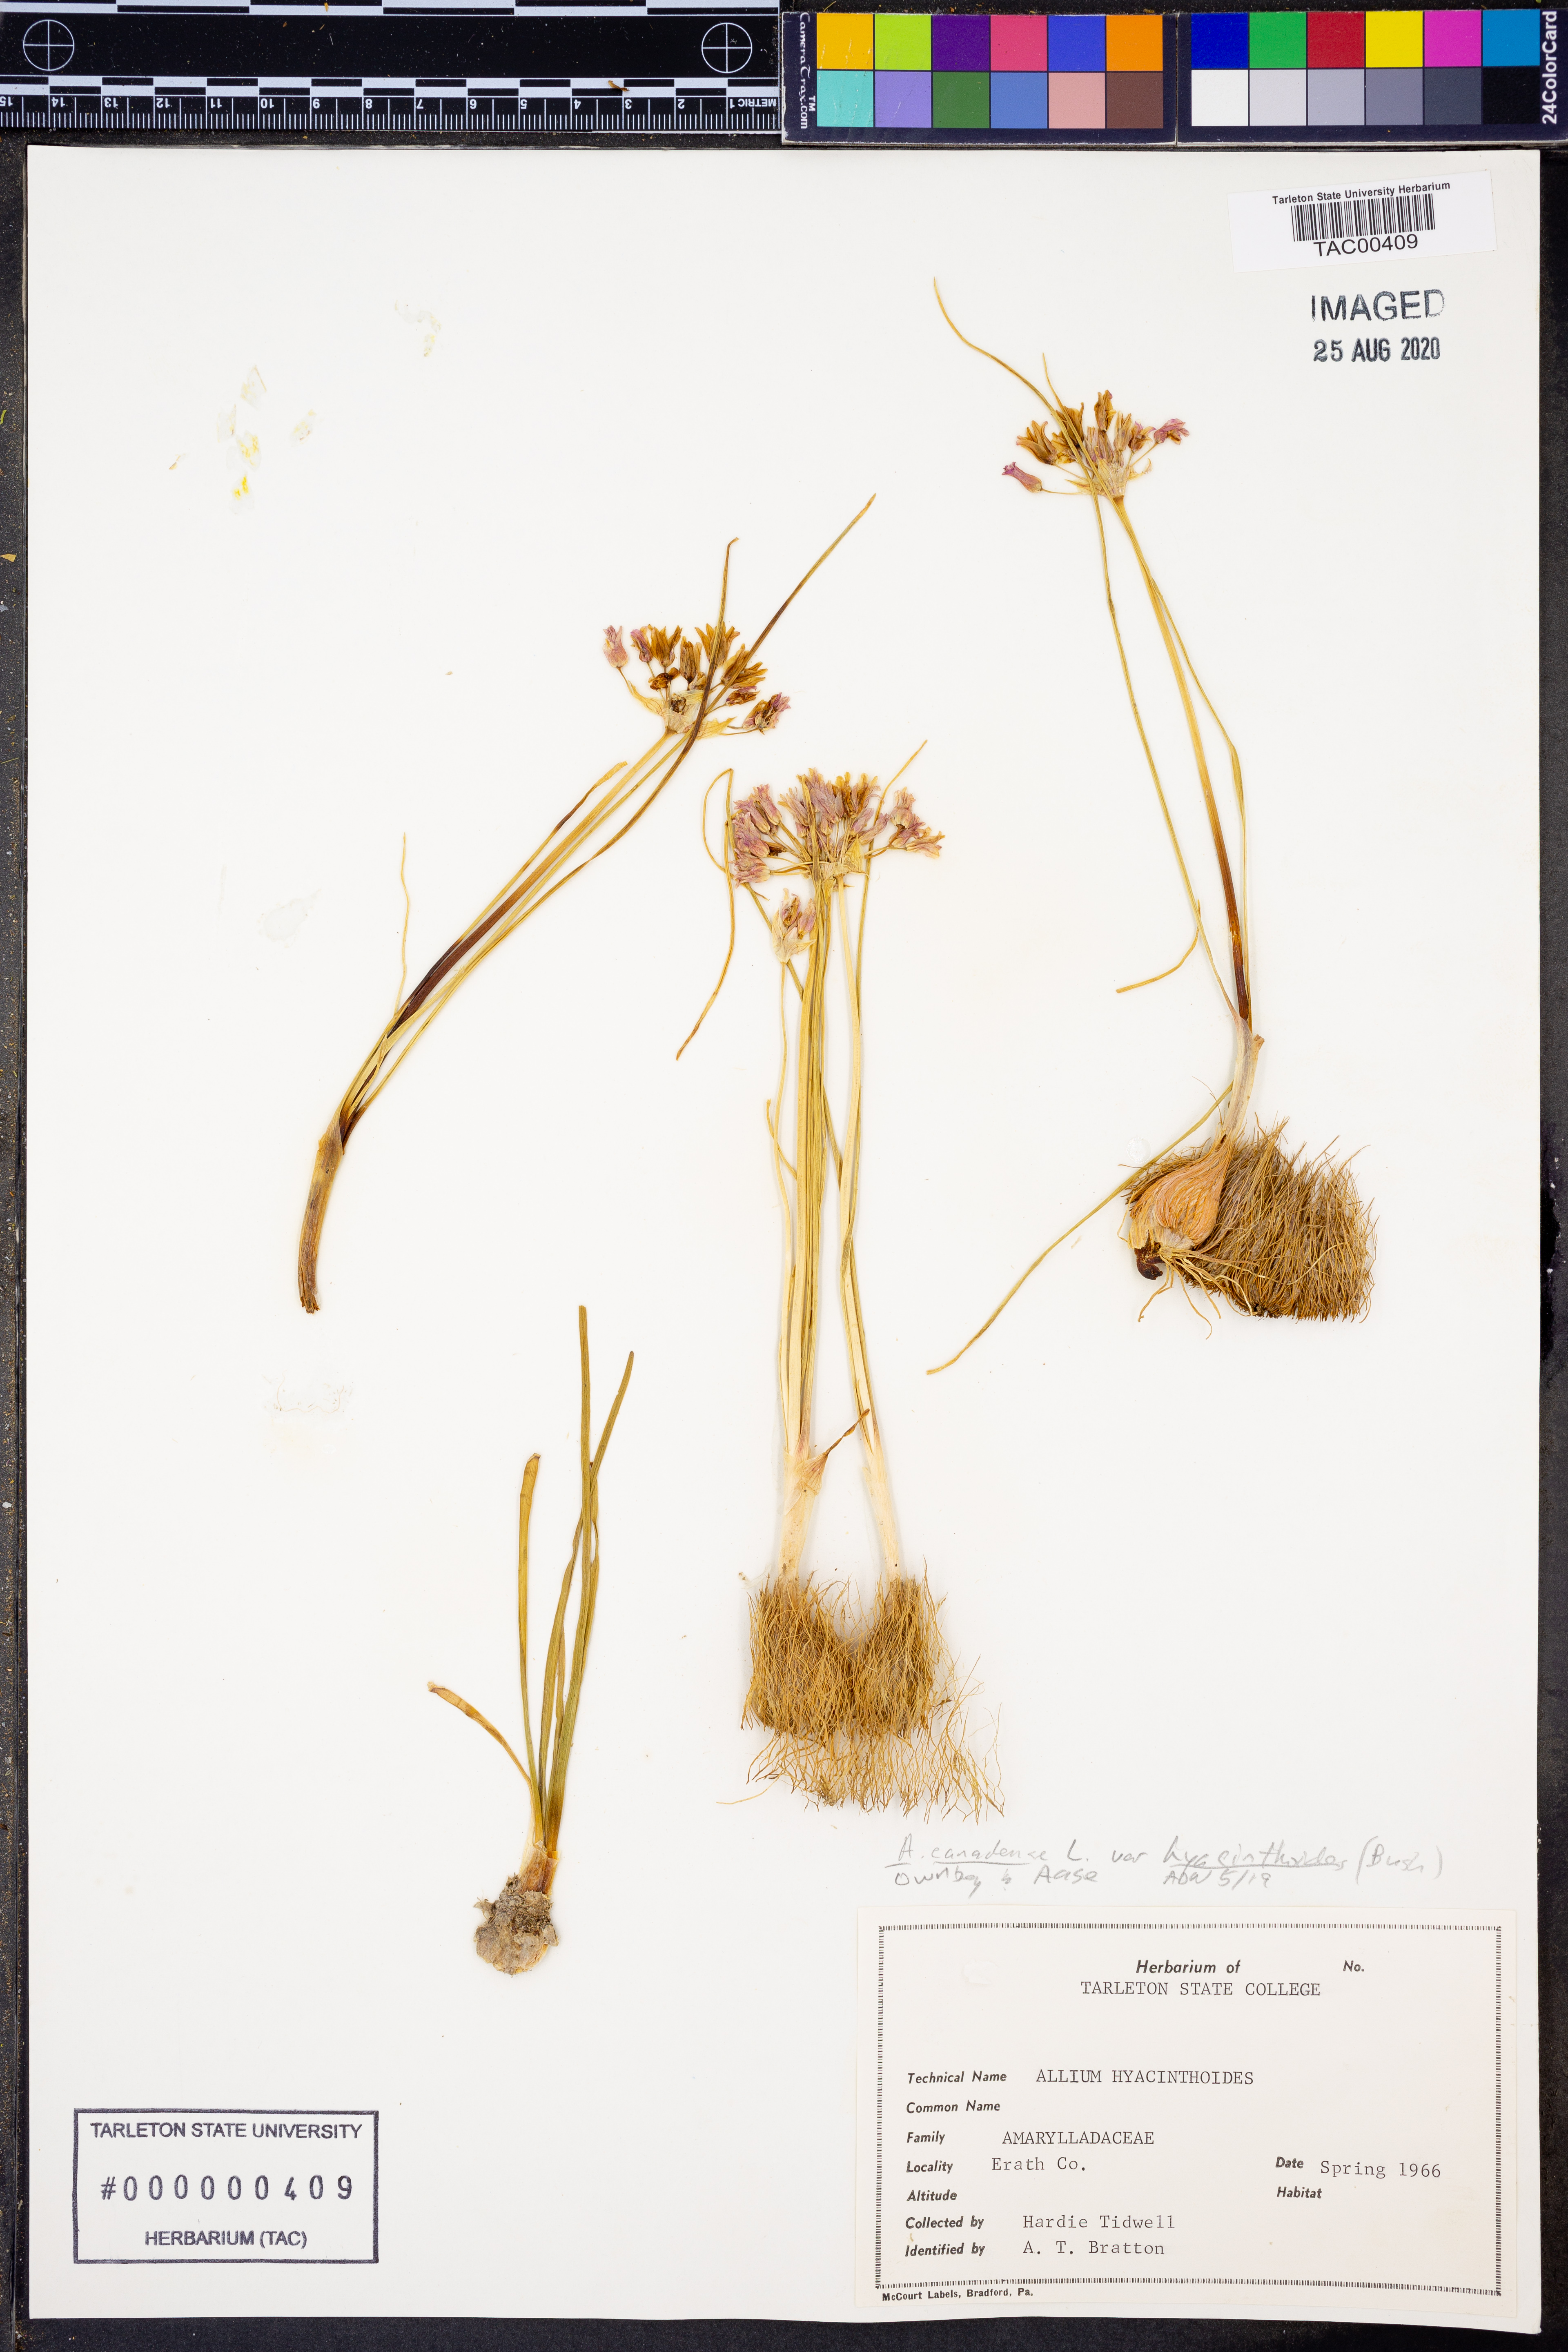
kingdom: Plantae
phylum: Tracheophyta
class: Liliopsida
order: Asparagales
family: Amaryllidaceae
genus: Allium
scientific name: Allium canadense
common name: Meadow garlic
